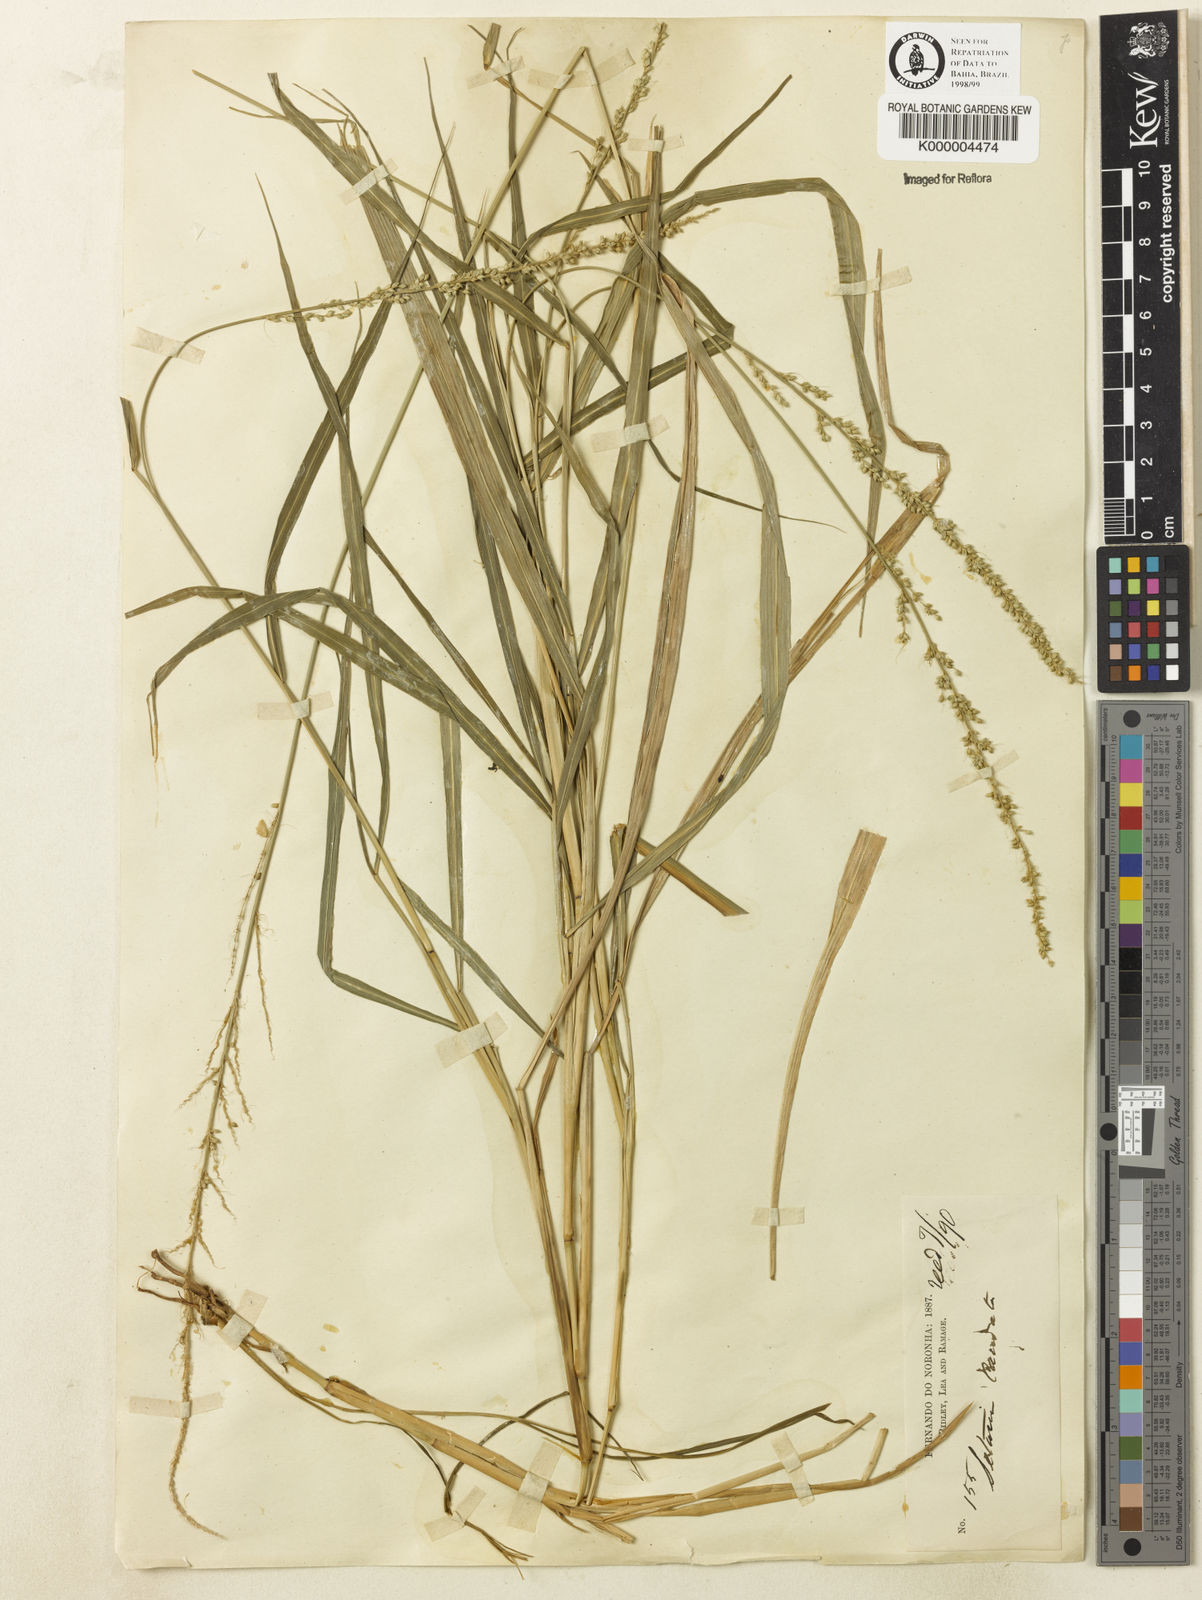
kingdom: Plantae
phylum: Tracheophyta
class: Liliopsida
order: Poales
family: Poaceae
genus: Setaria
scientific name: Setaria setosa
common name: West indies bristle grass
